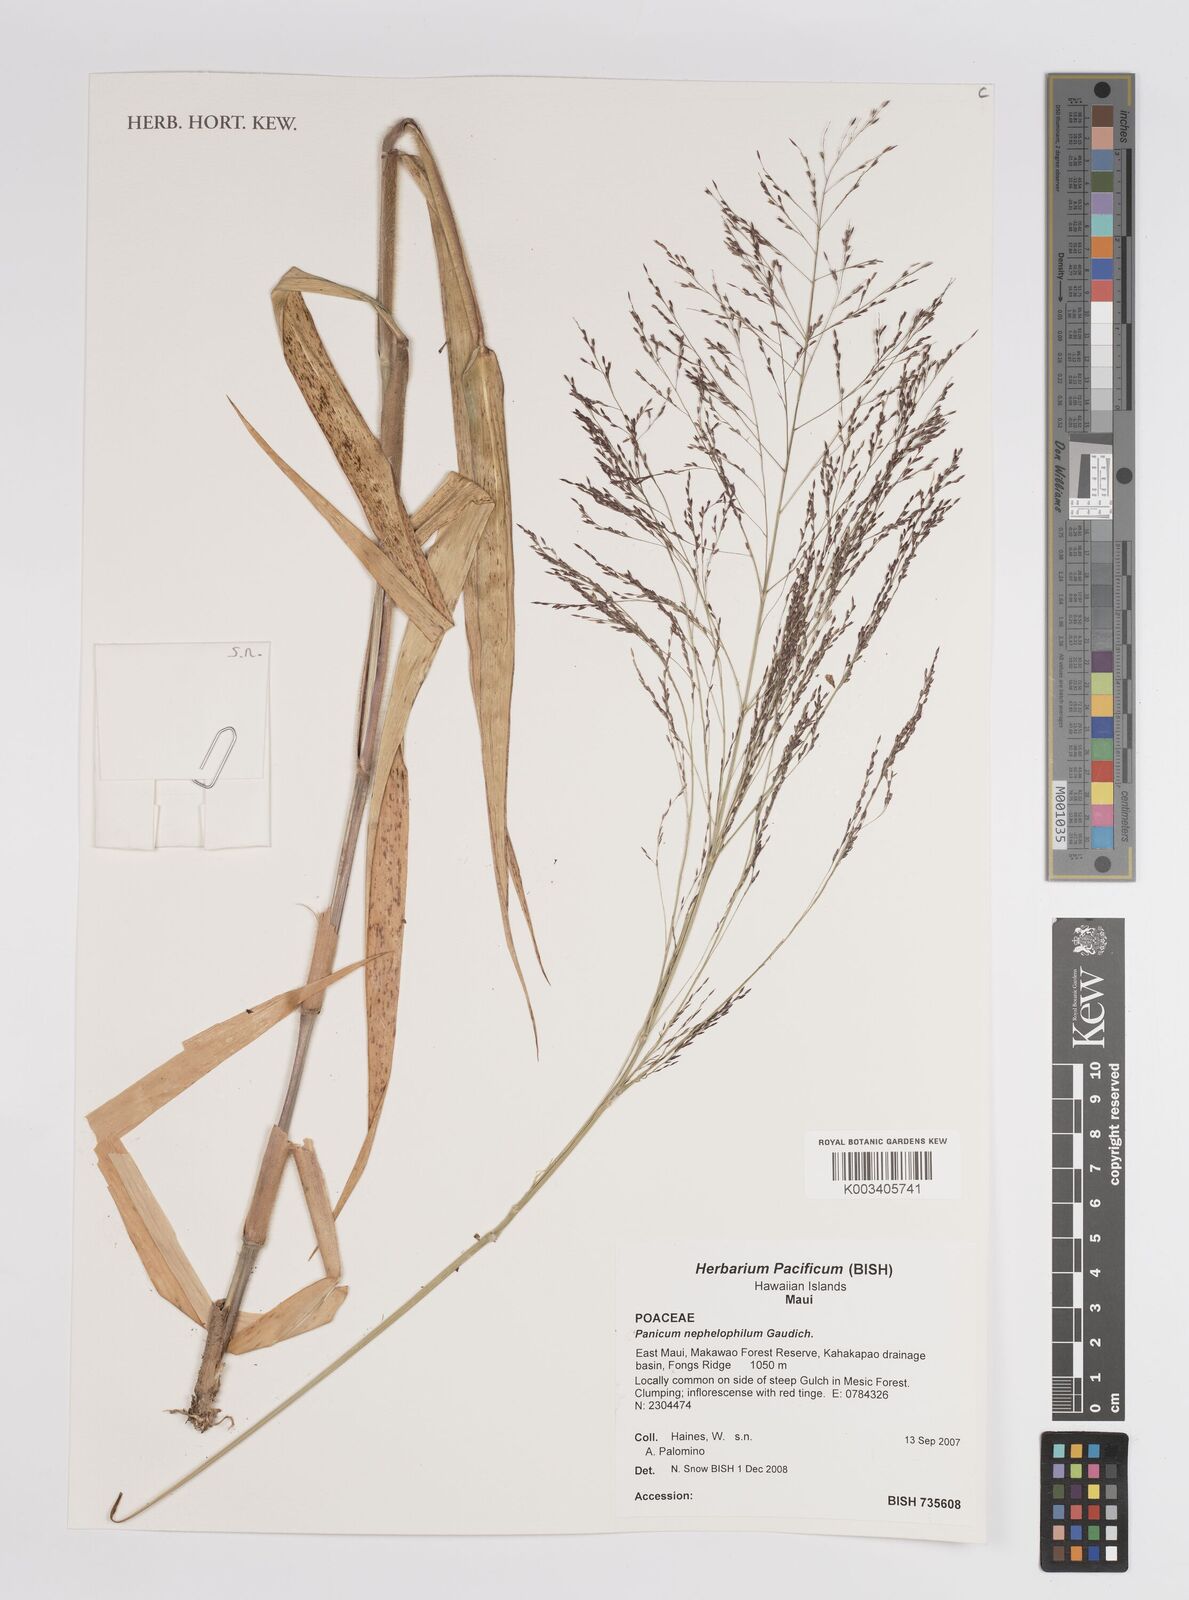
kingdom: Plantae
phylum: Tracheophyta
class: Liliopsida
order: Poales
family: Poaceae
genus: Panicum
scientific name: Panicum nephelophilum
